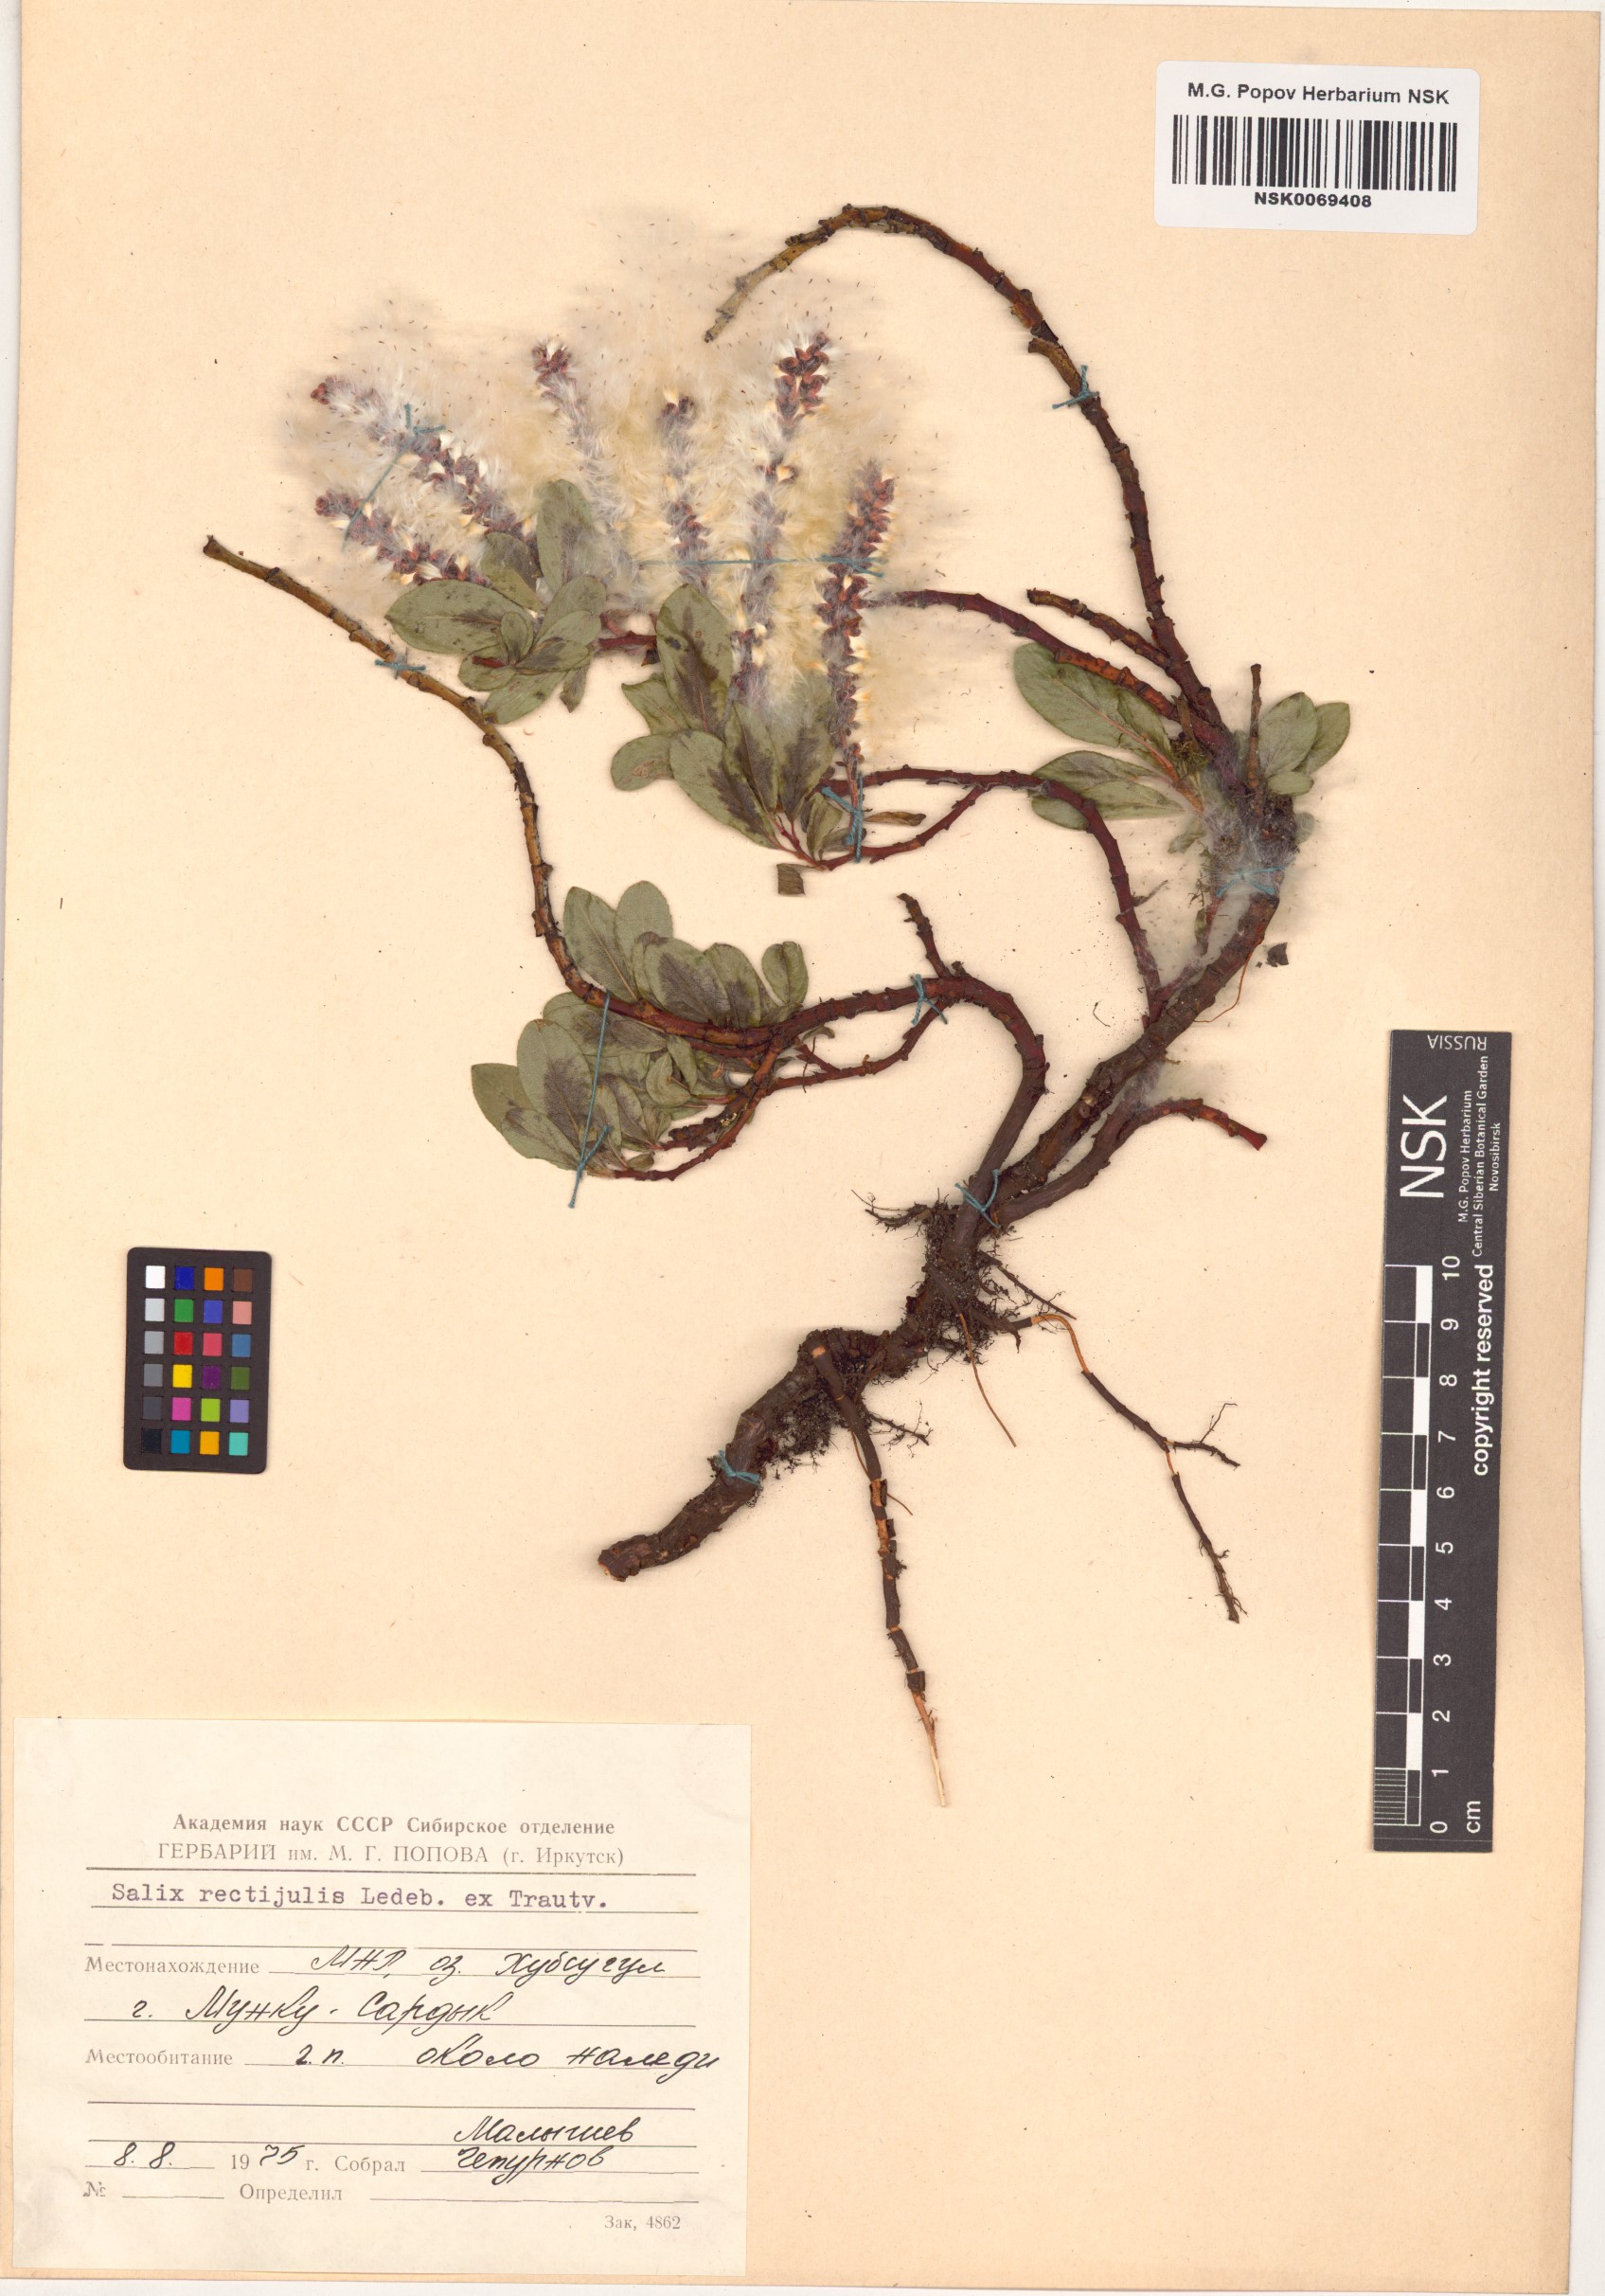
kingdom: Plantae
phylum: Tracheophyta
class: Magnoliopsida
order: Malpighiales
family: Salicaceae
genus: Salix
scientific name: Salix rectijulis
